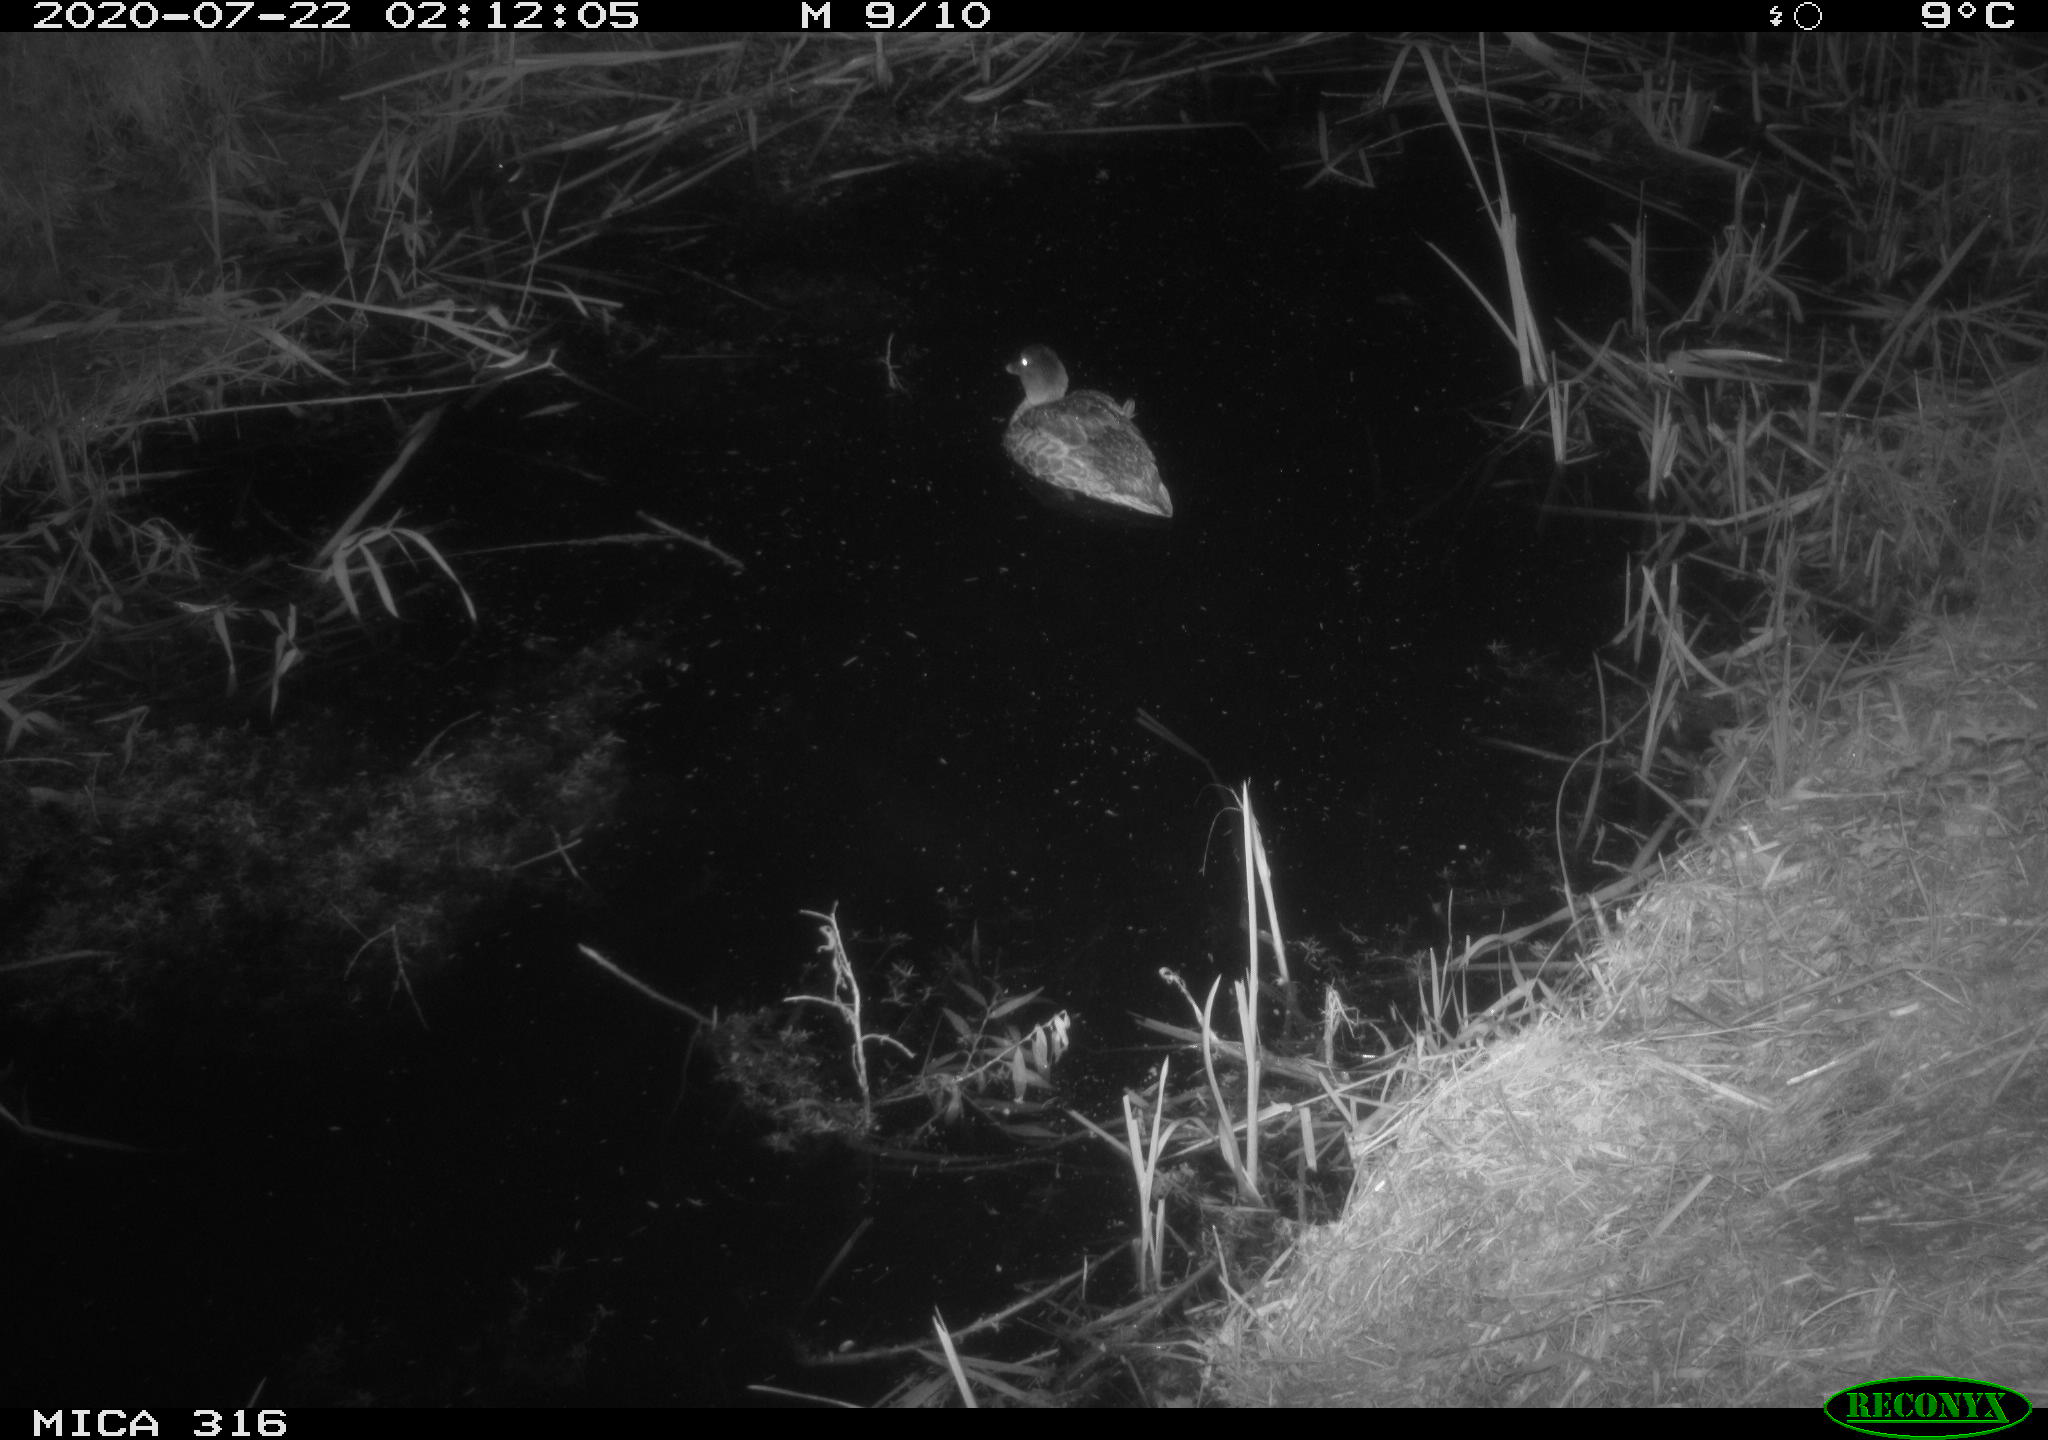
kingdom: Animalia
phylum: Chordata
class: Aves
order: Anseriformes
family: Anatidae
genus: Anas
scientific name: Anas platyrhynchos
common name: Mallard
